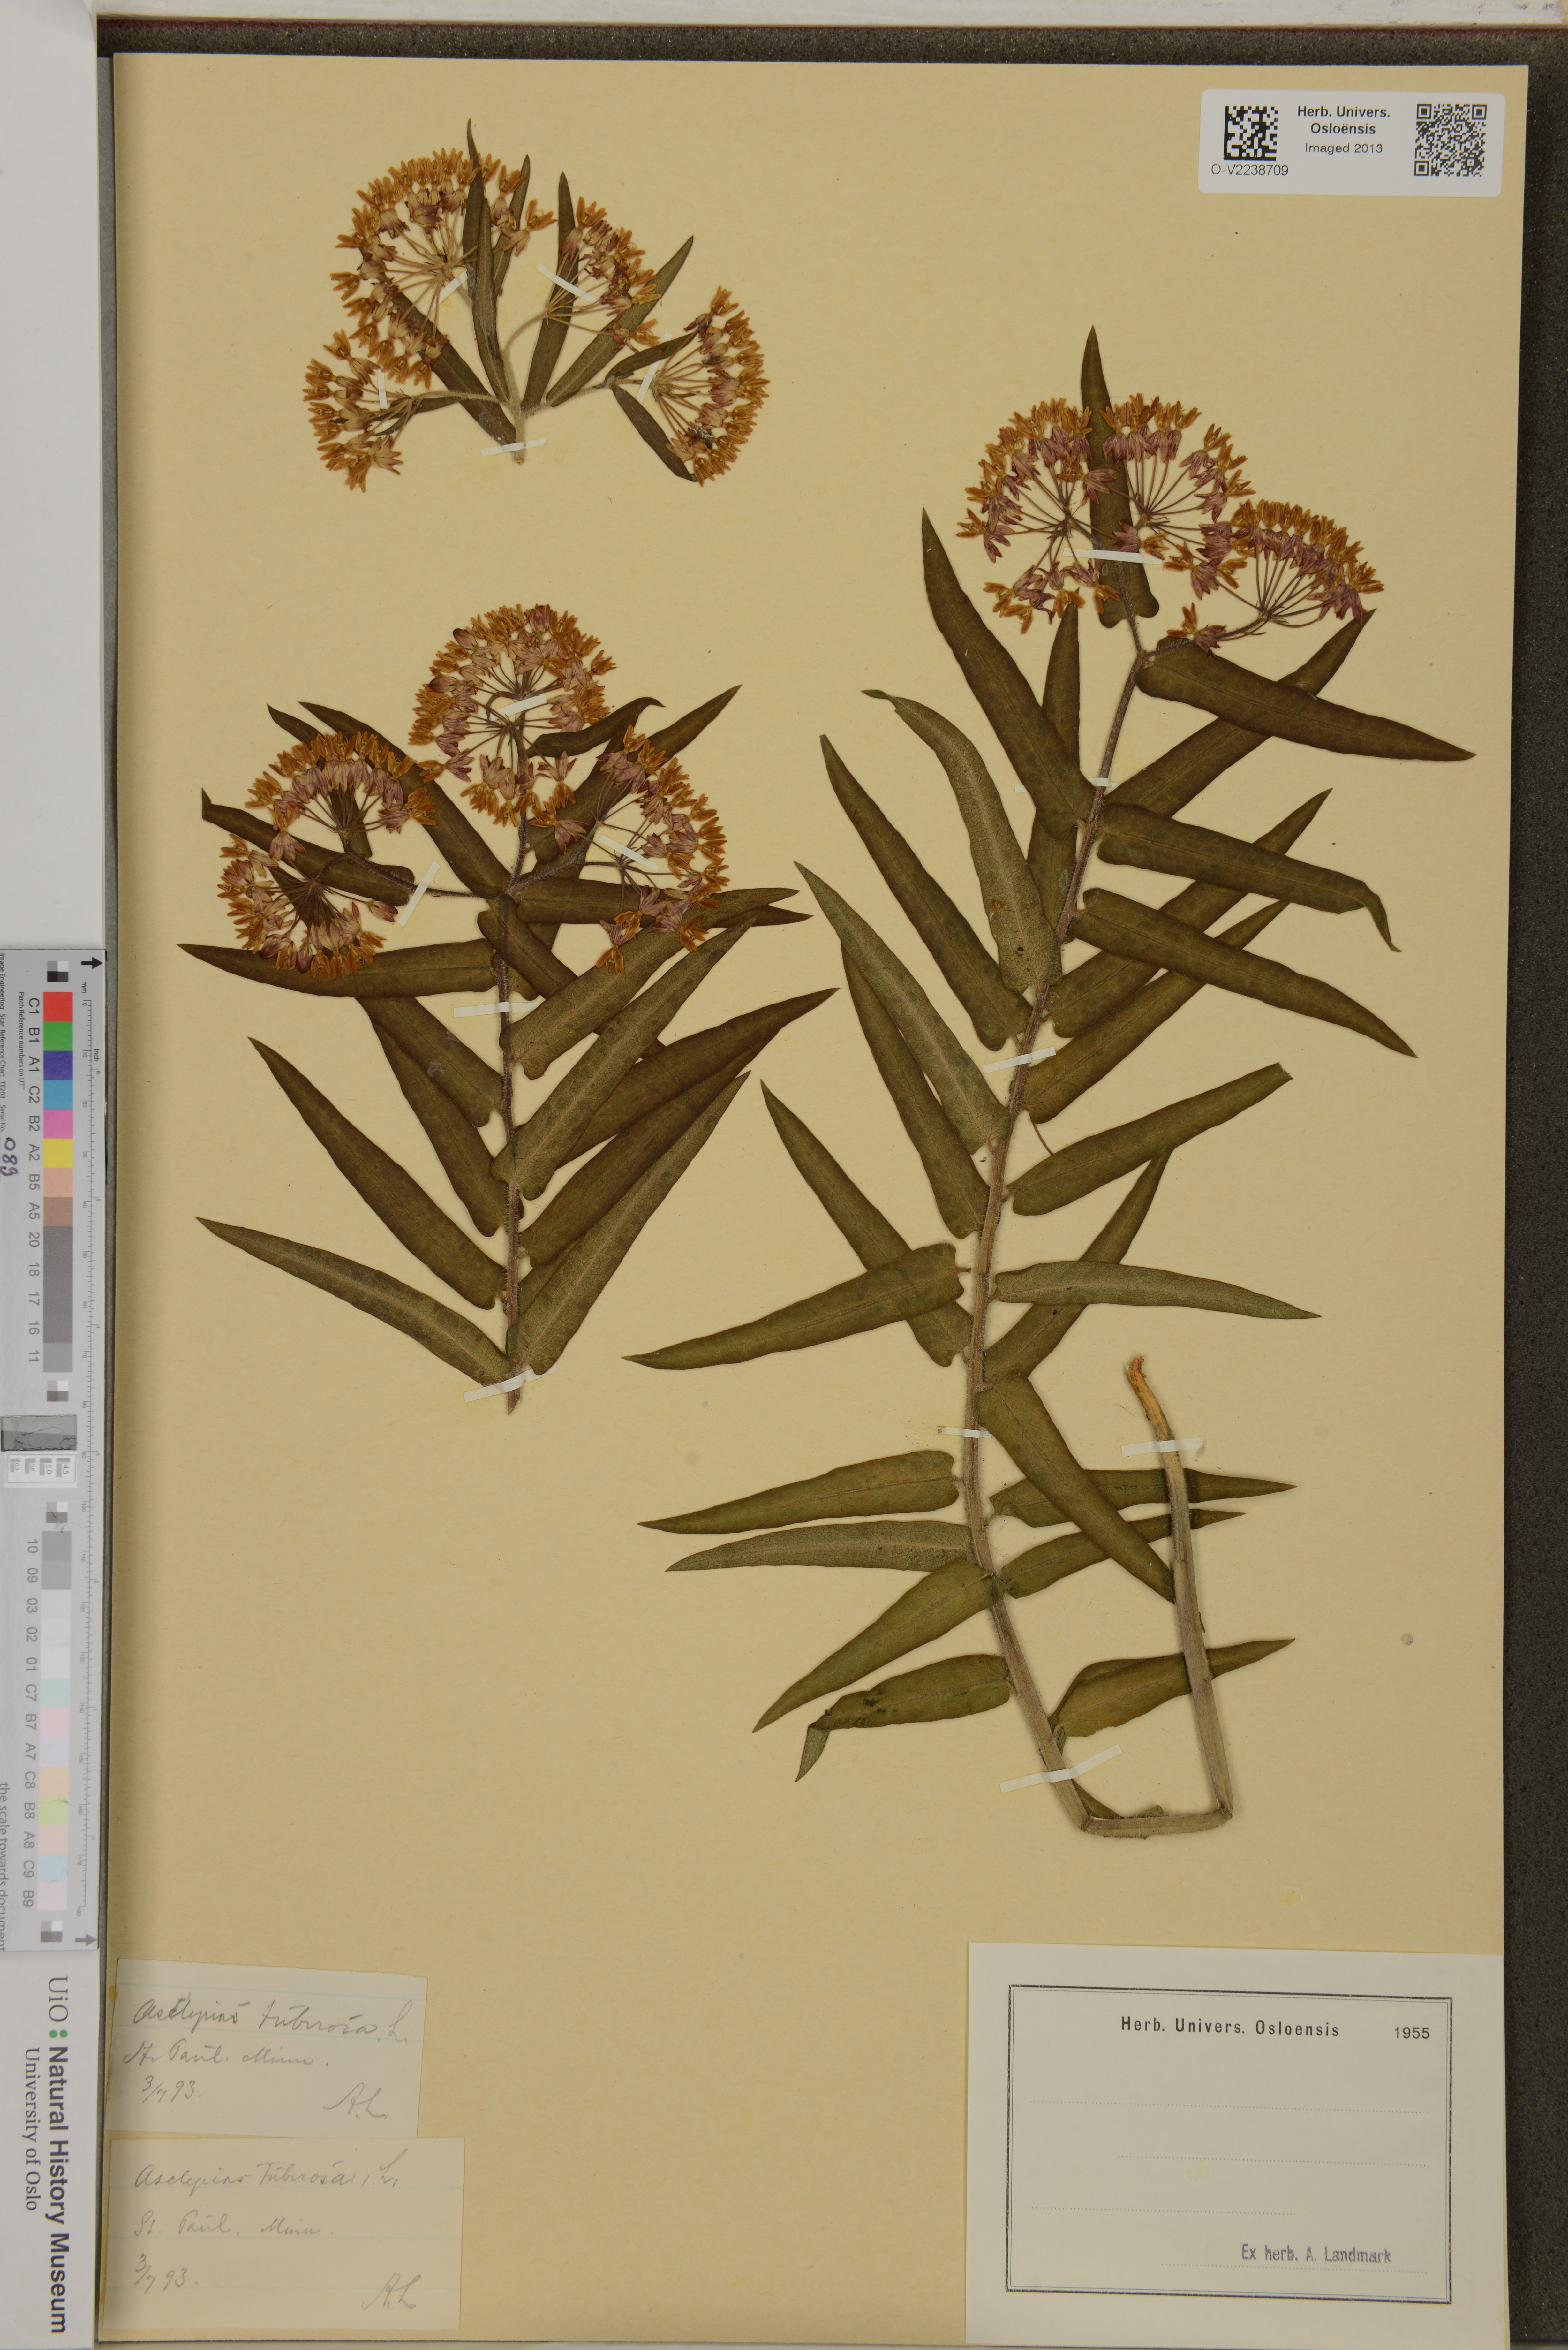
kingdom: Plantae
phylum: Tracheophyta
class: Magnoliopsida
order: Gentianales
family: Apocynaceae
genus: Asclepias
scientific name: Asclepias tuberosa
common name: Butterfly milkweed
